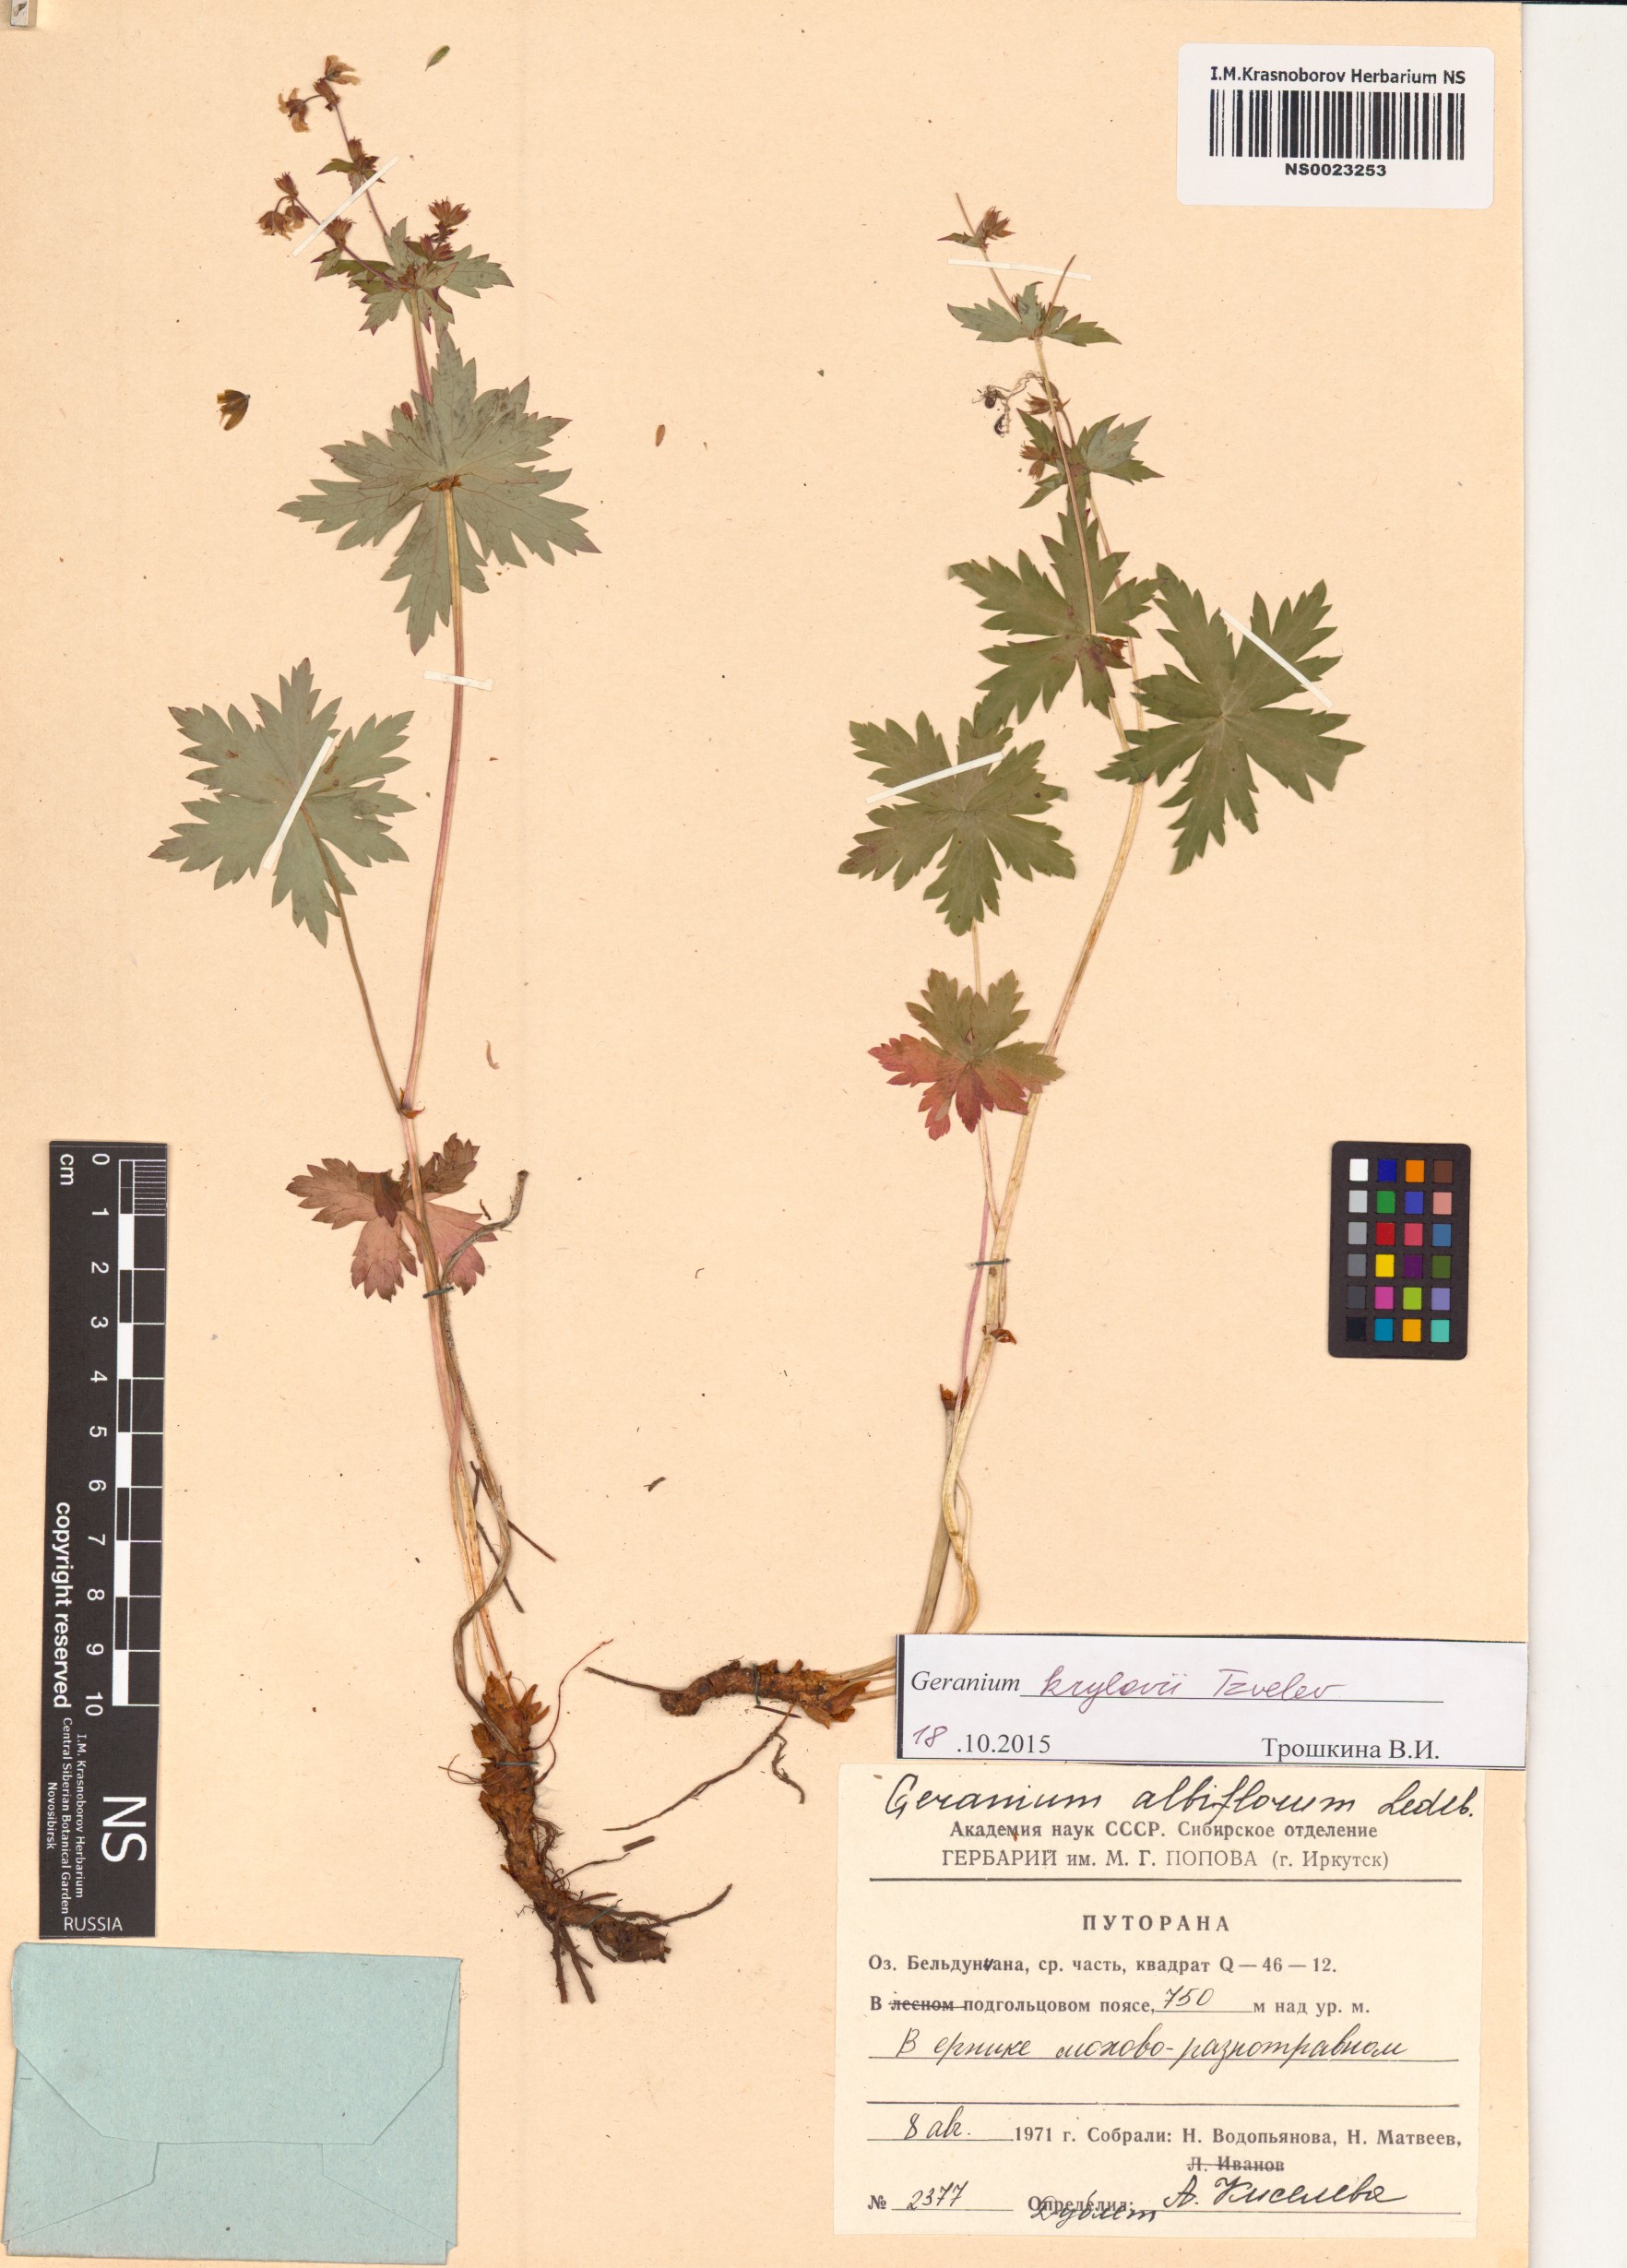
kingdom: Plantae
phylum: Tracheophyta
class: Magnoliopsida
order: Geraniales
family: Geraniaceae
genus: Geranium
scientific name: Geranium sylvaticum
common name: Wood crane's-bill
